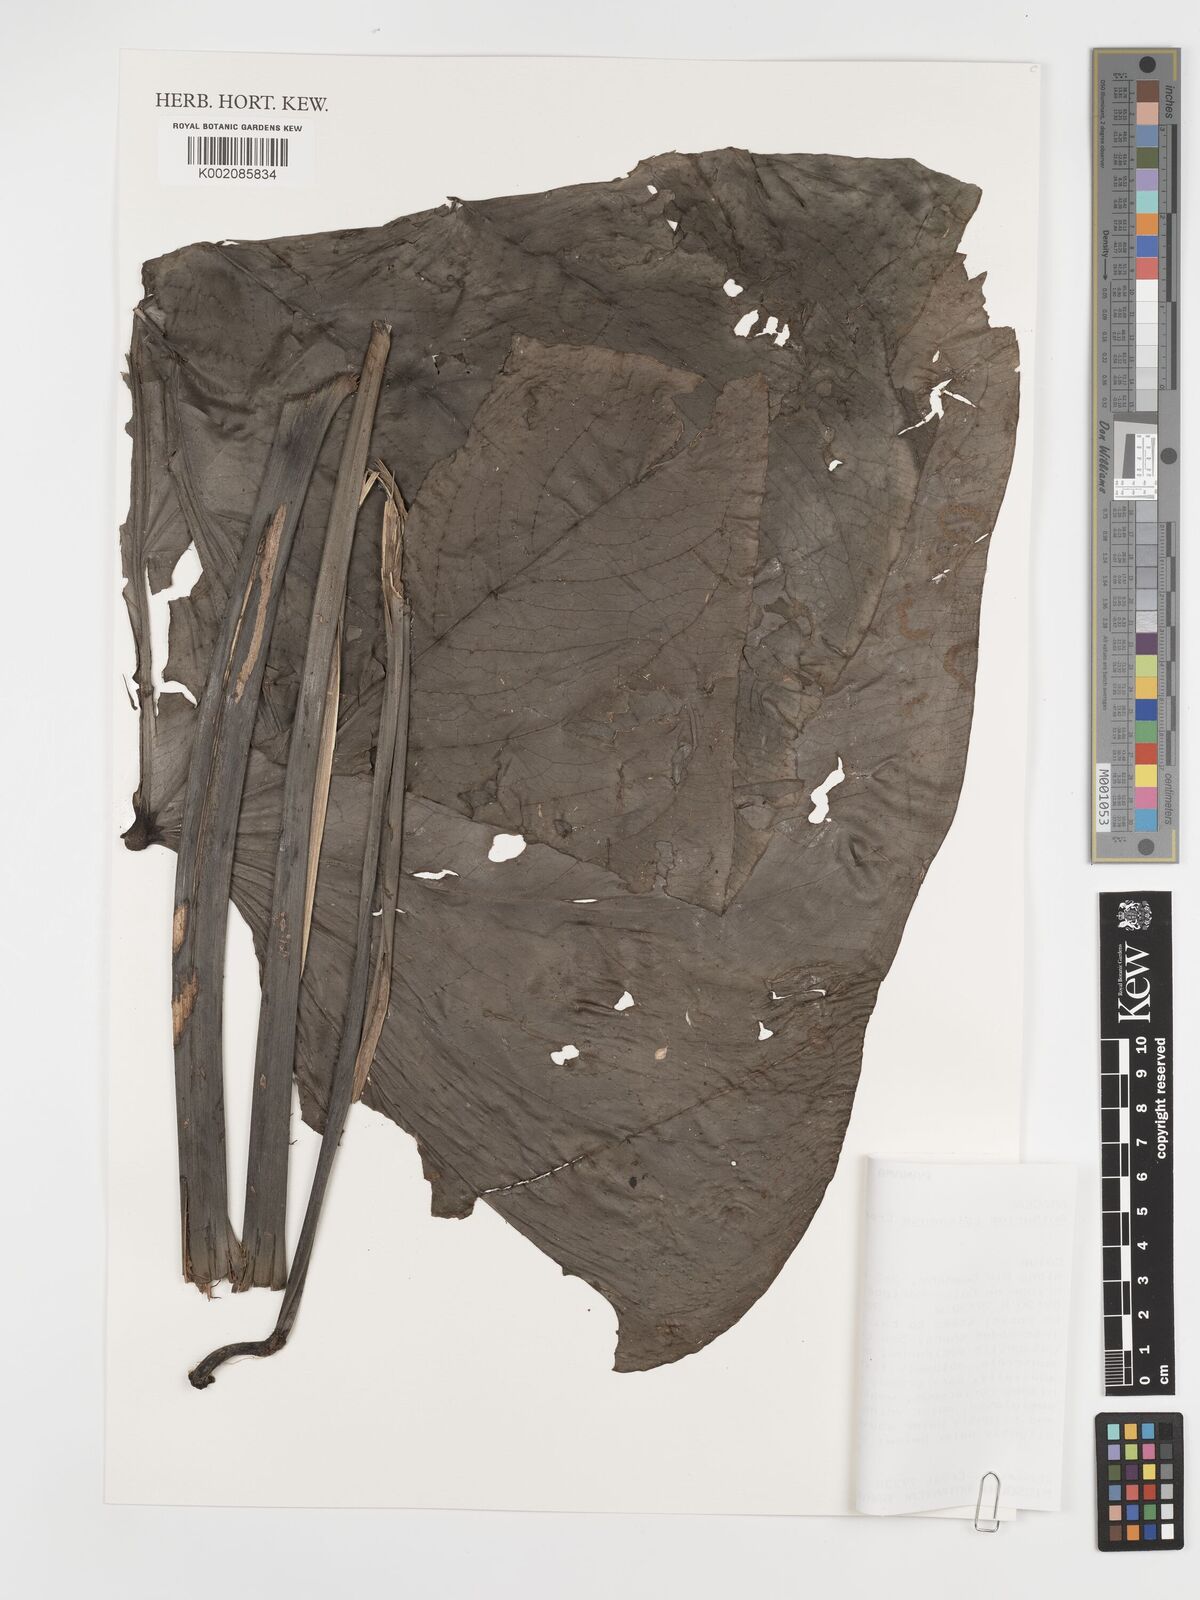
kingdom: Plantae
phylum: Tracheophyta
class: Liliopsida
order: Alismatales
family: Araceae
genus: Anthurium
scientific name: Anthurium colonense
